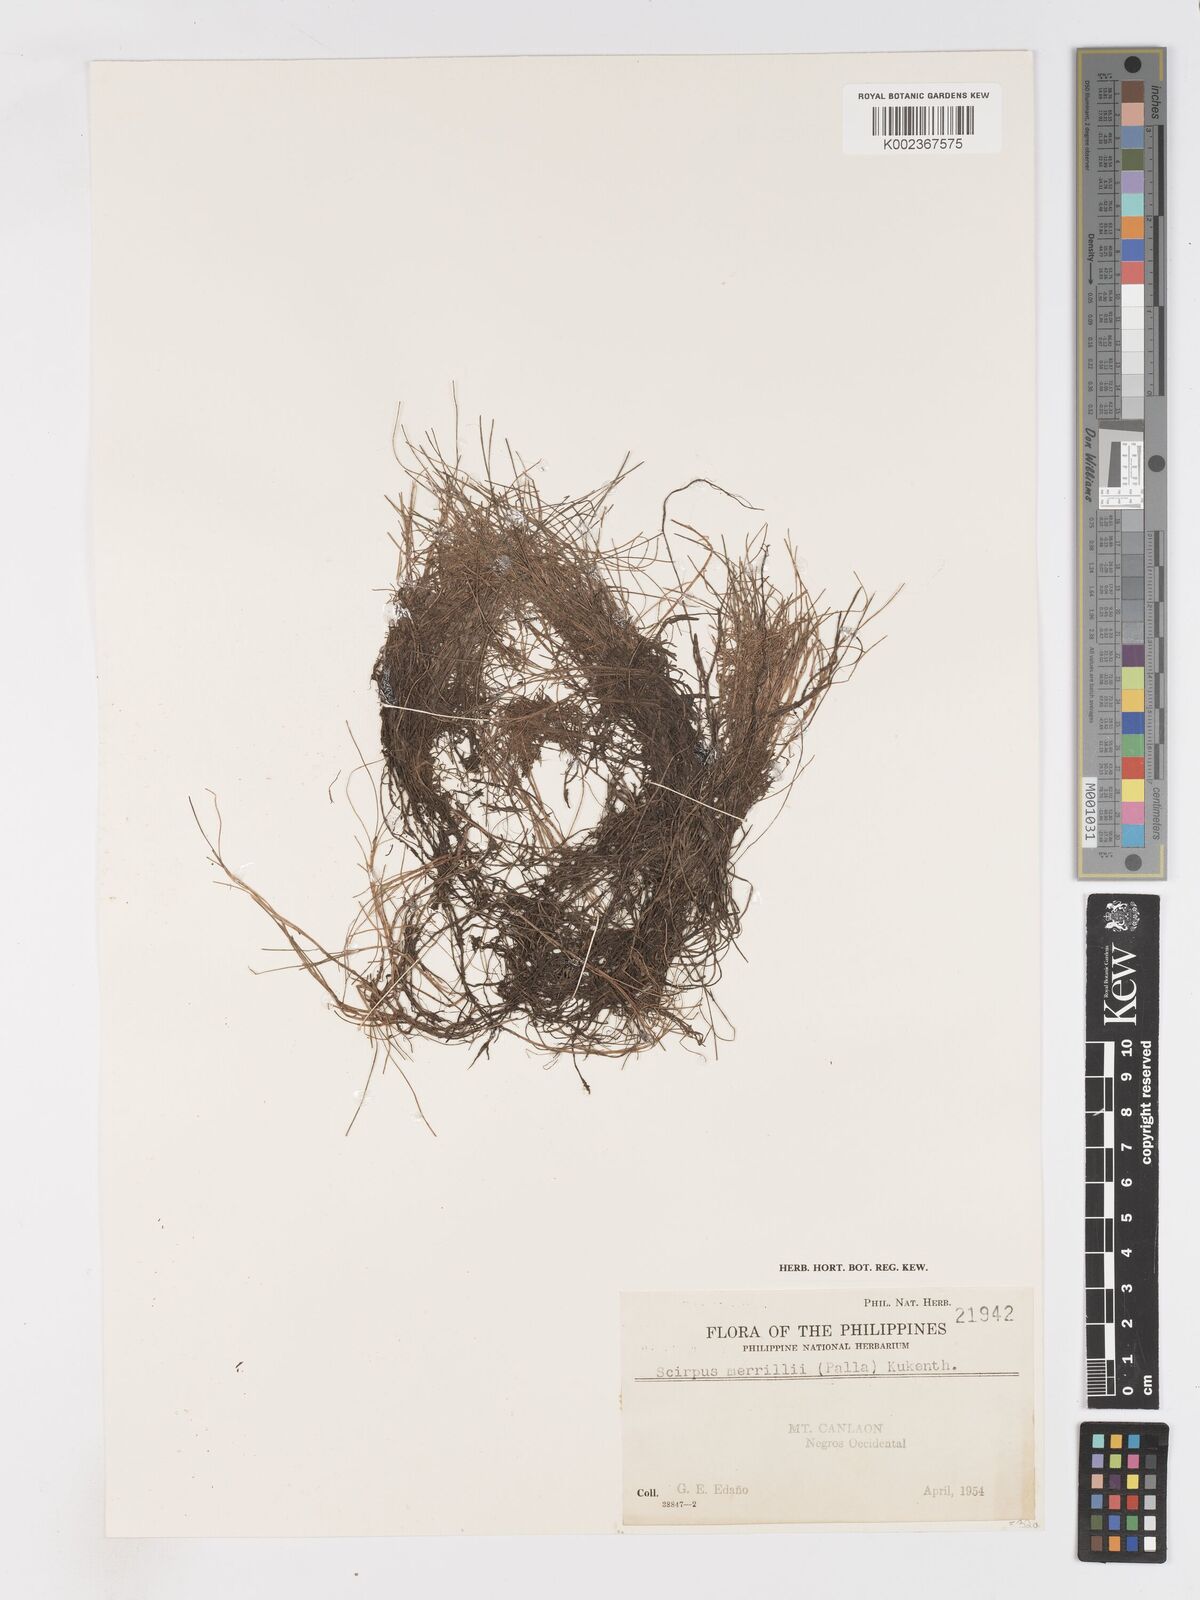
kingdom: Plantae
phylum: Tracheophyta
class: Liliopsida
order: Poales
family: Cyperaceae
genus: Isolepis
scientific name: Isolepis subtilissima
